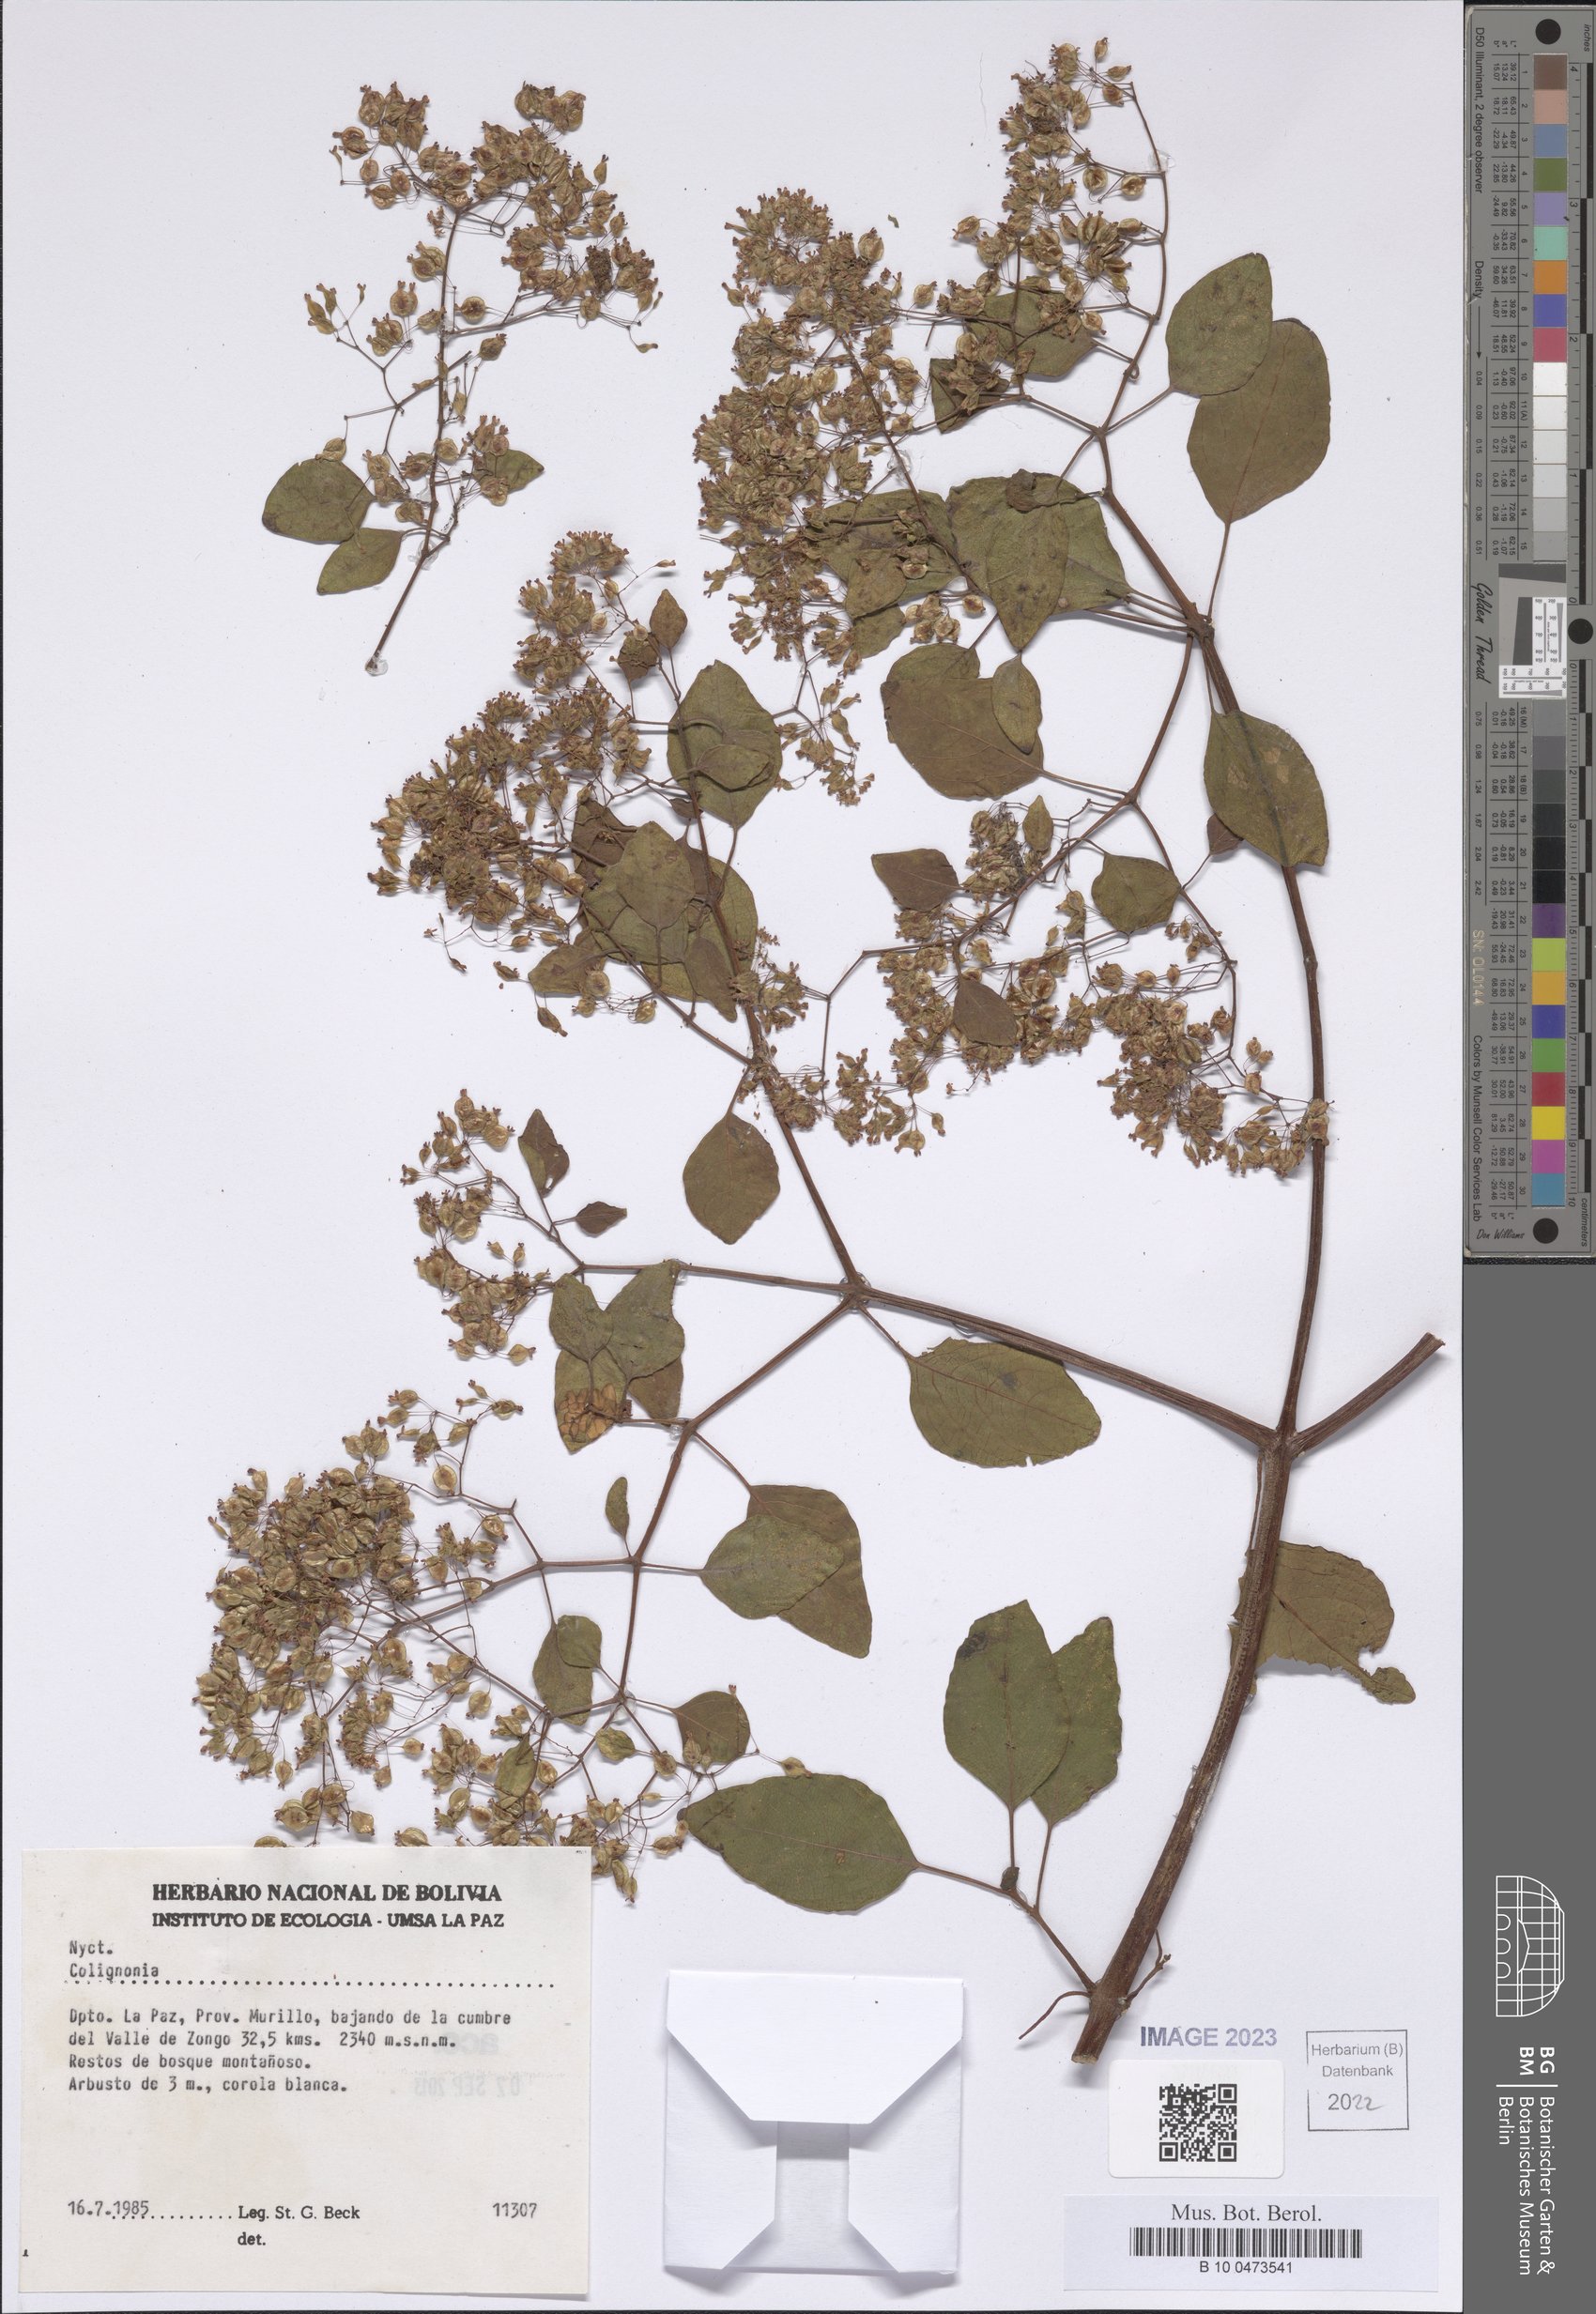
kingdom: Plantae
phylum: Tracheophyta
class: Magnoliopsida
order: Caryophyllales
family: Nyctaginaceae
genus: Colignonia
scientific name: Colignonia
